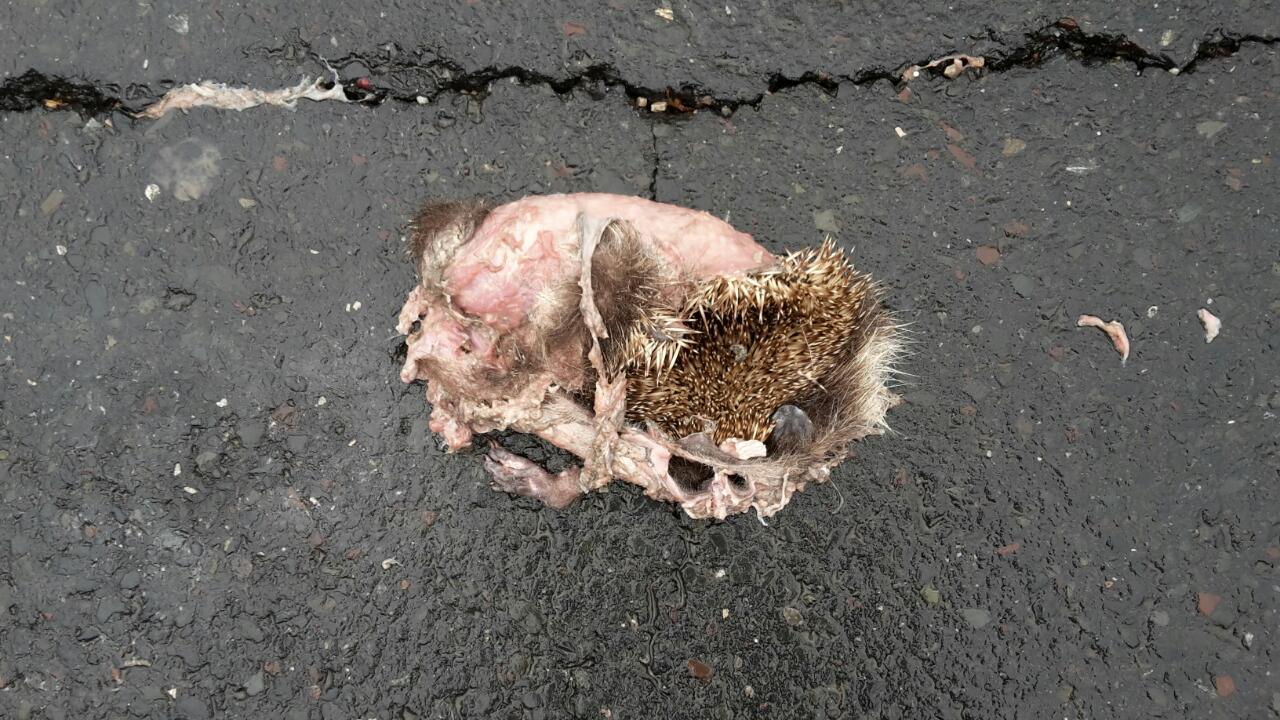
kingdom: Animalia
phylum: Chordata
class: Mammalia
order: Erinaceomorpha
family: Erinaceidae
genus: Erinaceus
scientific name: Erinaceus
